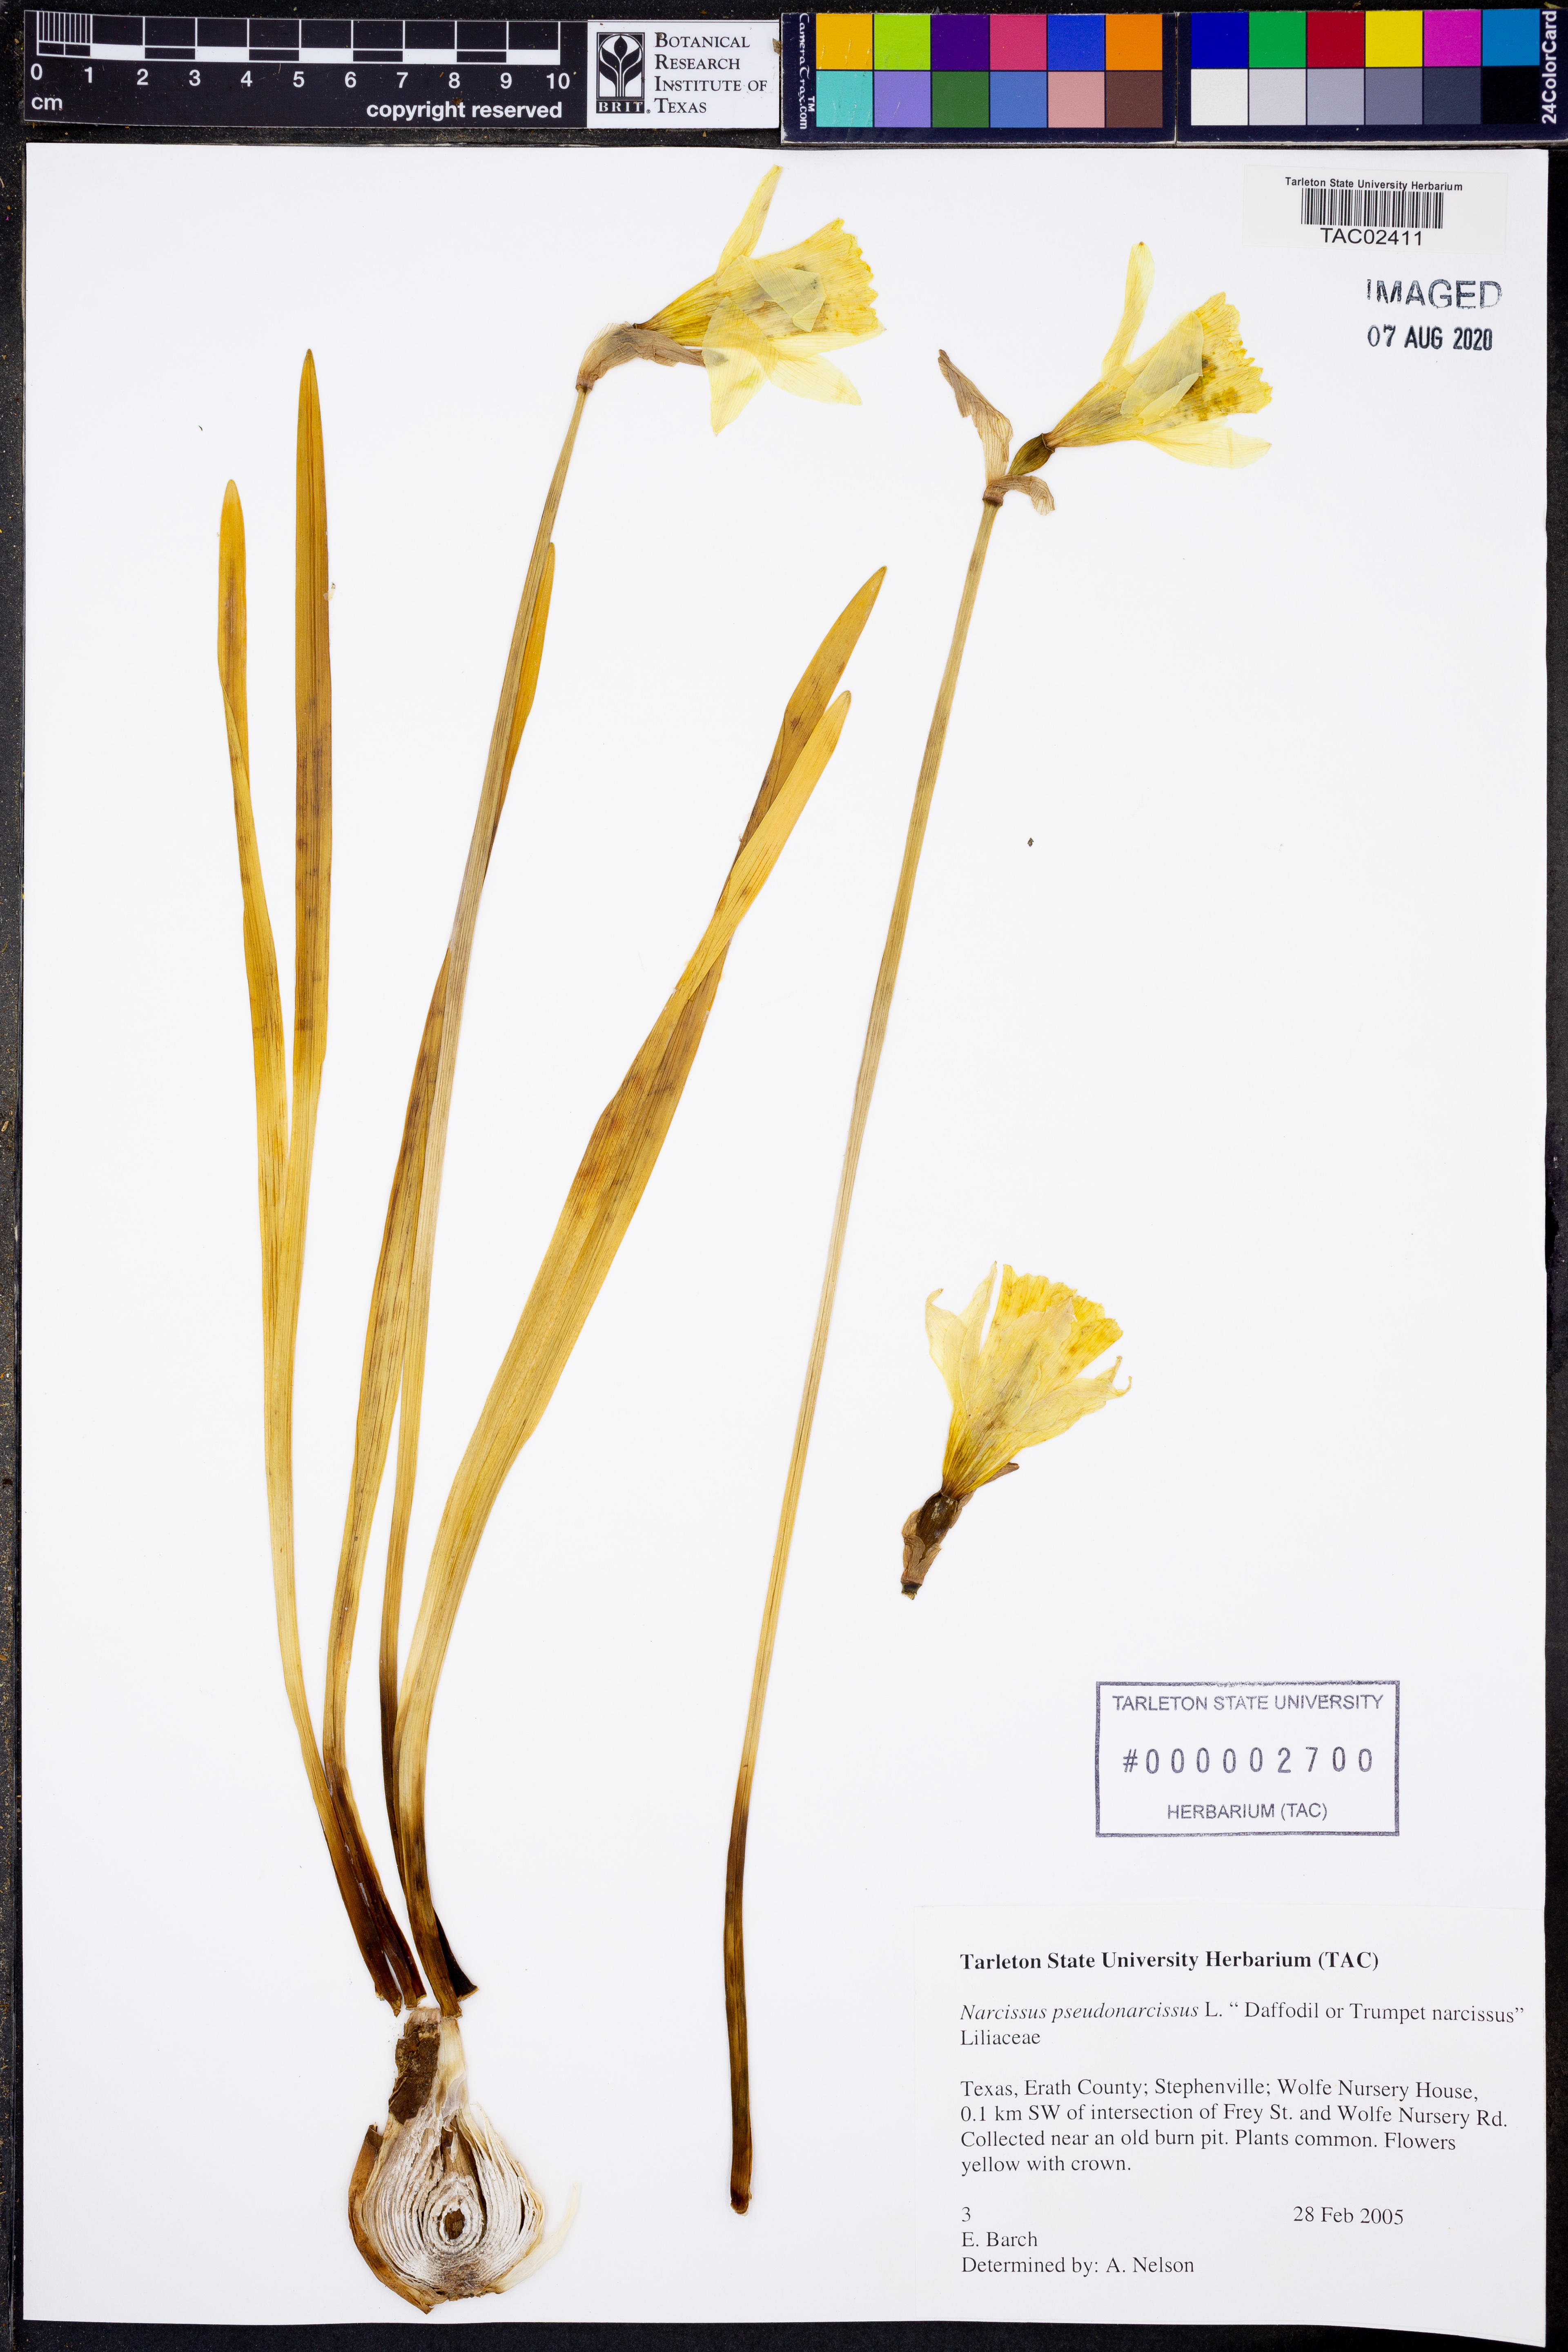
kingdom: Plantae
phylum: Tracheophyta
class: Liliopsida
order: Asparagales
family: Amaryllidaceae
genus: Narcissus
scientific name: Narcissus pseudonarcissus
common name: Daffodil
